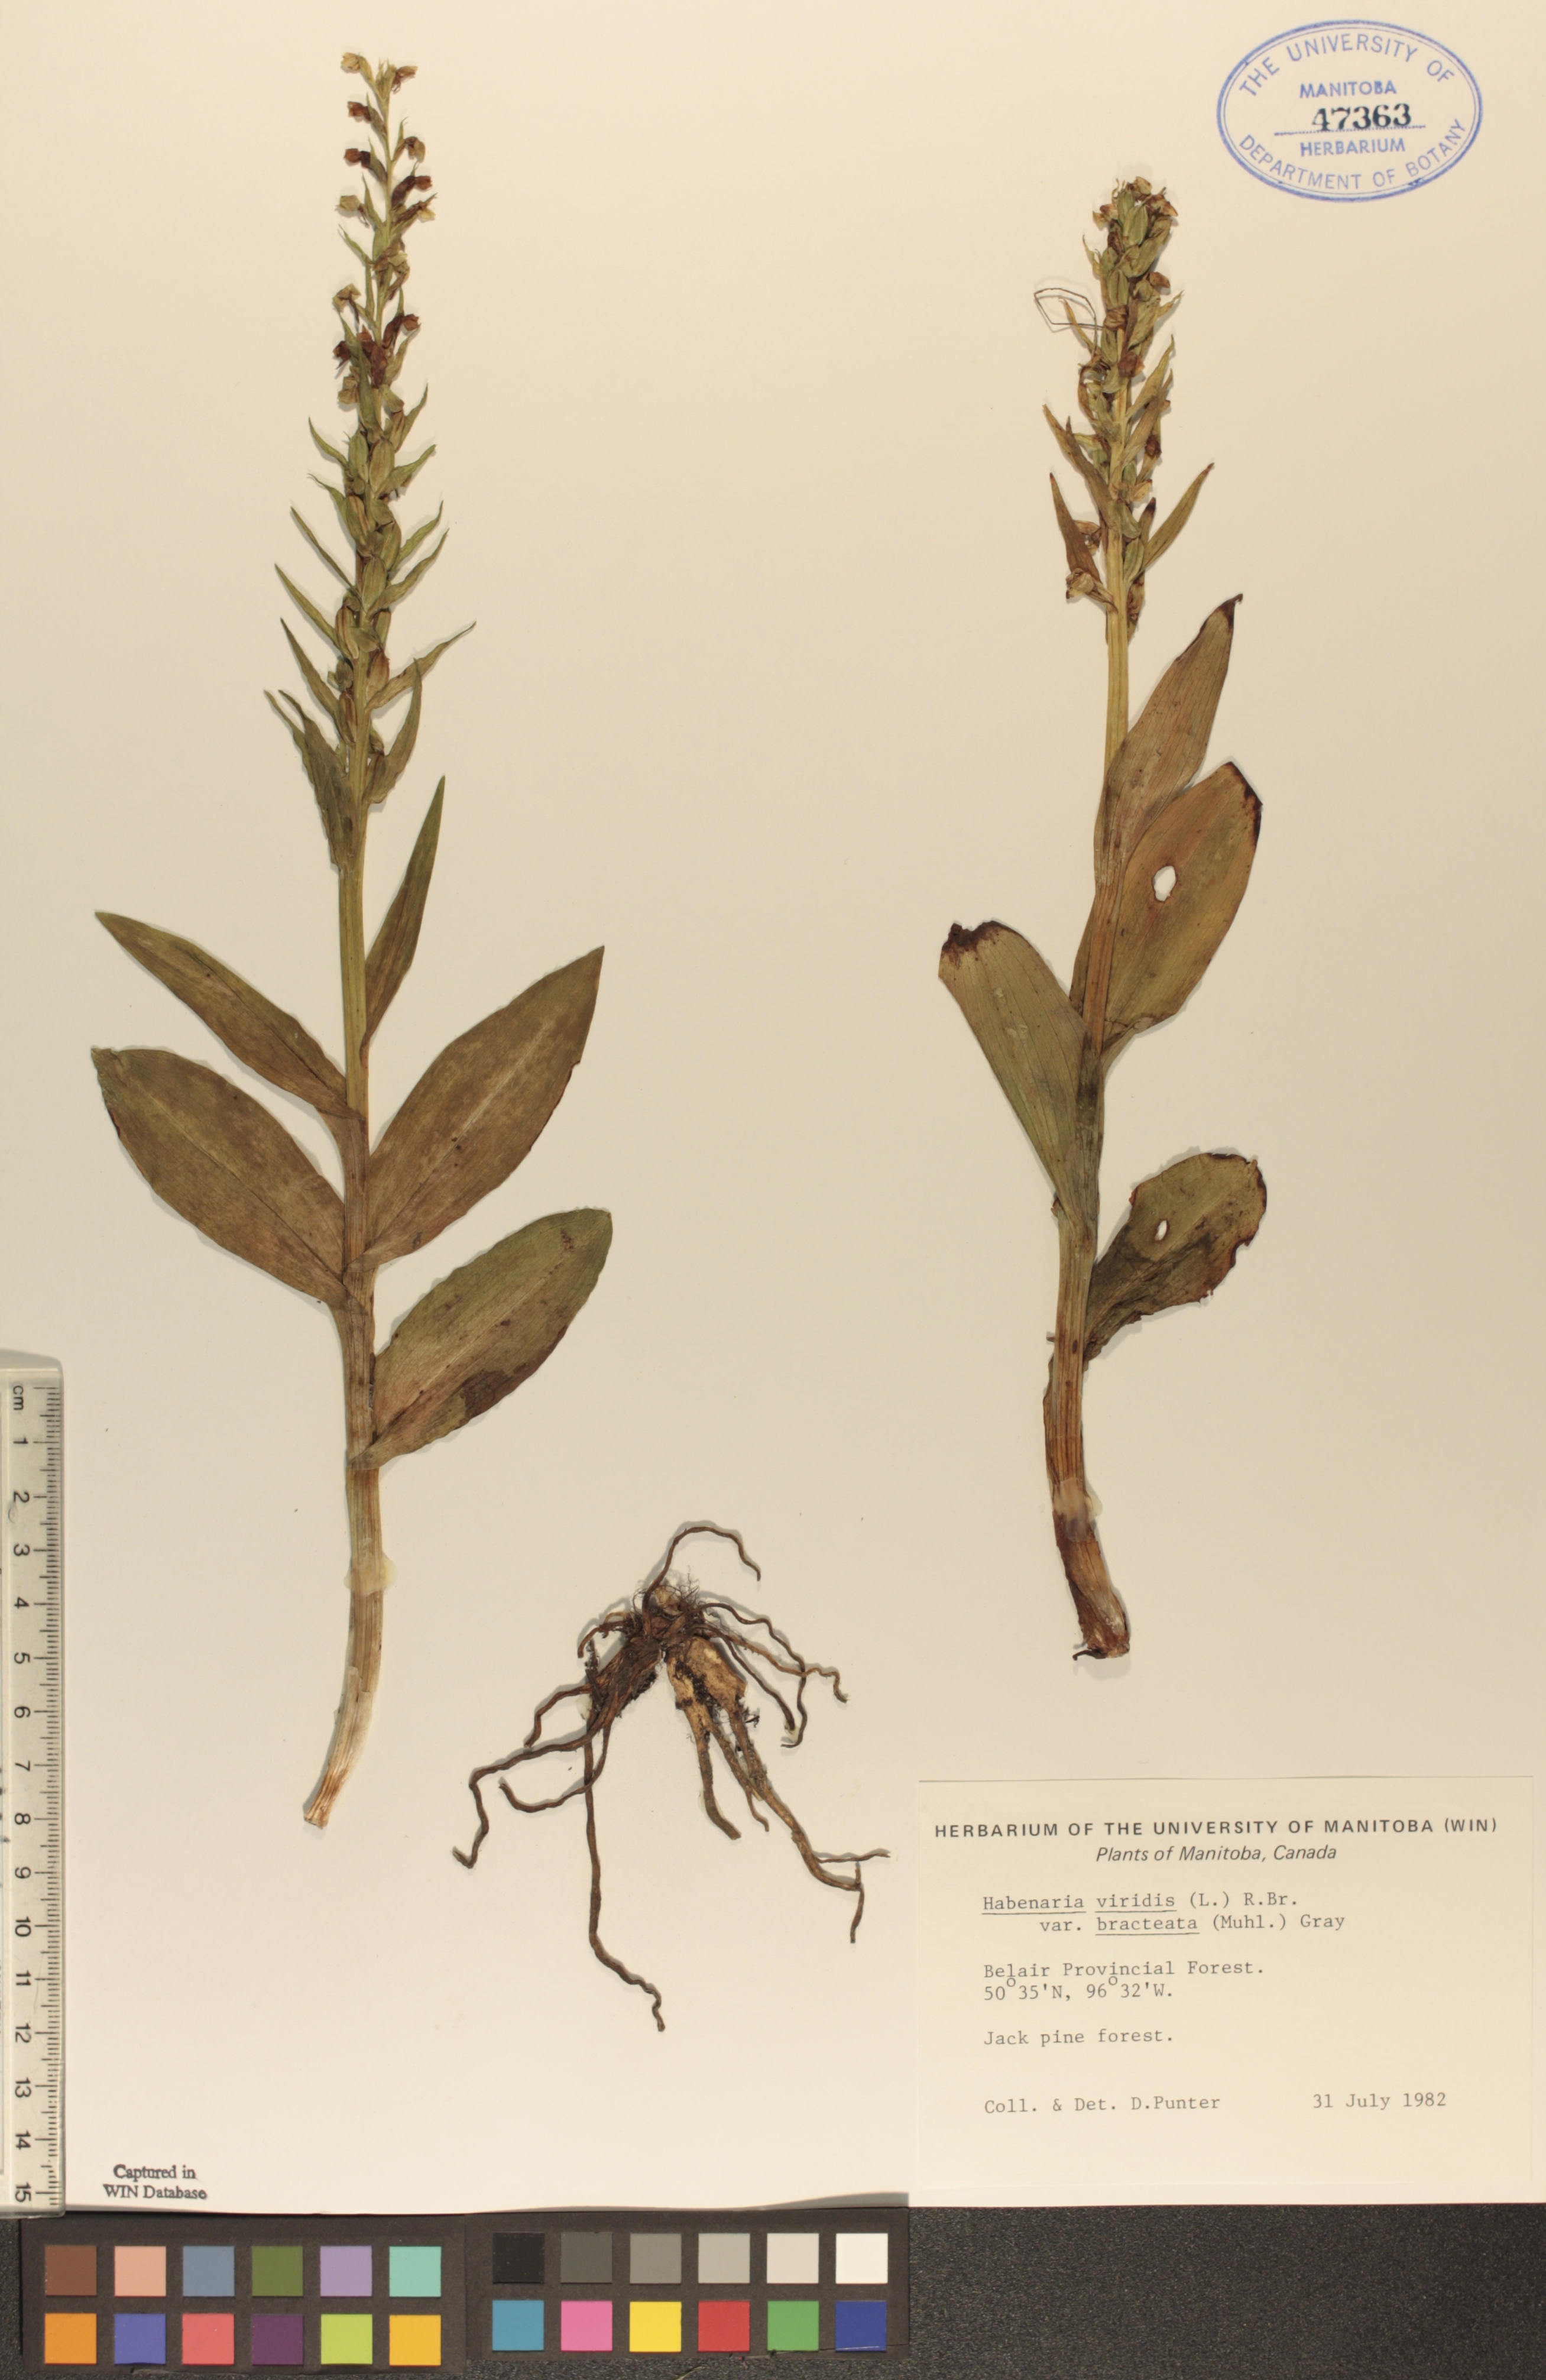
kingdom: Plantae
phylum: Tracheophyta
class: Liliopsida
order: Asparagales
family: Orchidaceae
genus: Dactylorhiza
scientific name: Dactylorhiza viridis
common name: Longbract frog orchid
